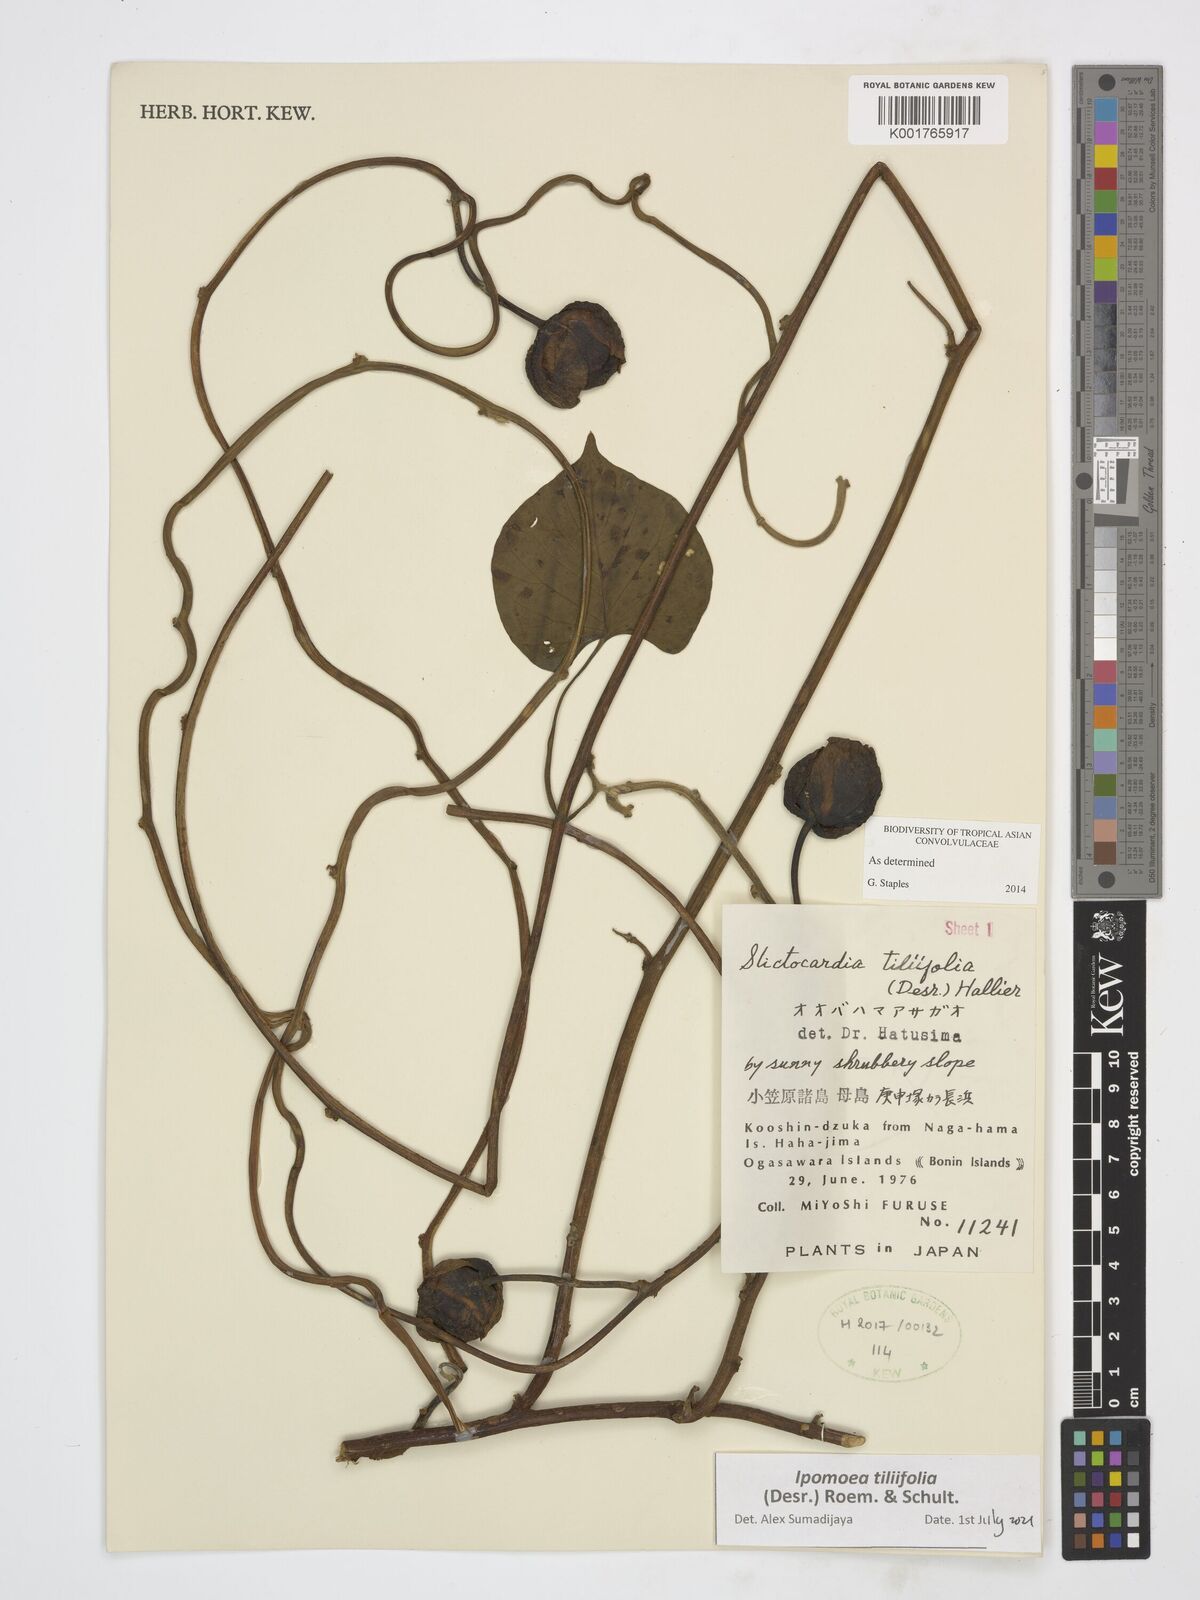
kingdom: Plantae
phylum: Tracheophyta
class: Magnoliopsida
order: Solanales
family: Convolvulaceae
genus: Stictocardia
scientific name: Stictocardia tiliifolia
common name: Spottedheart
